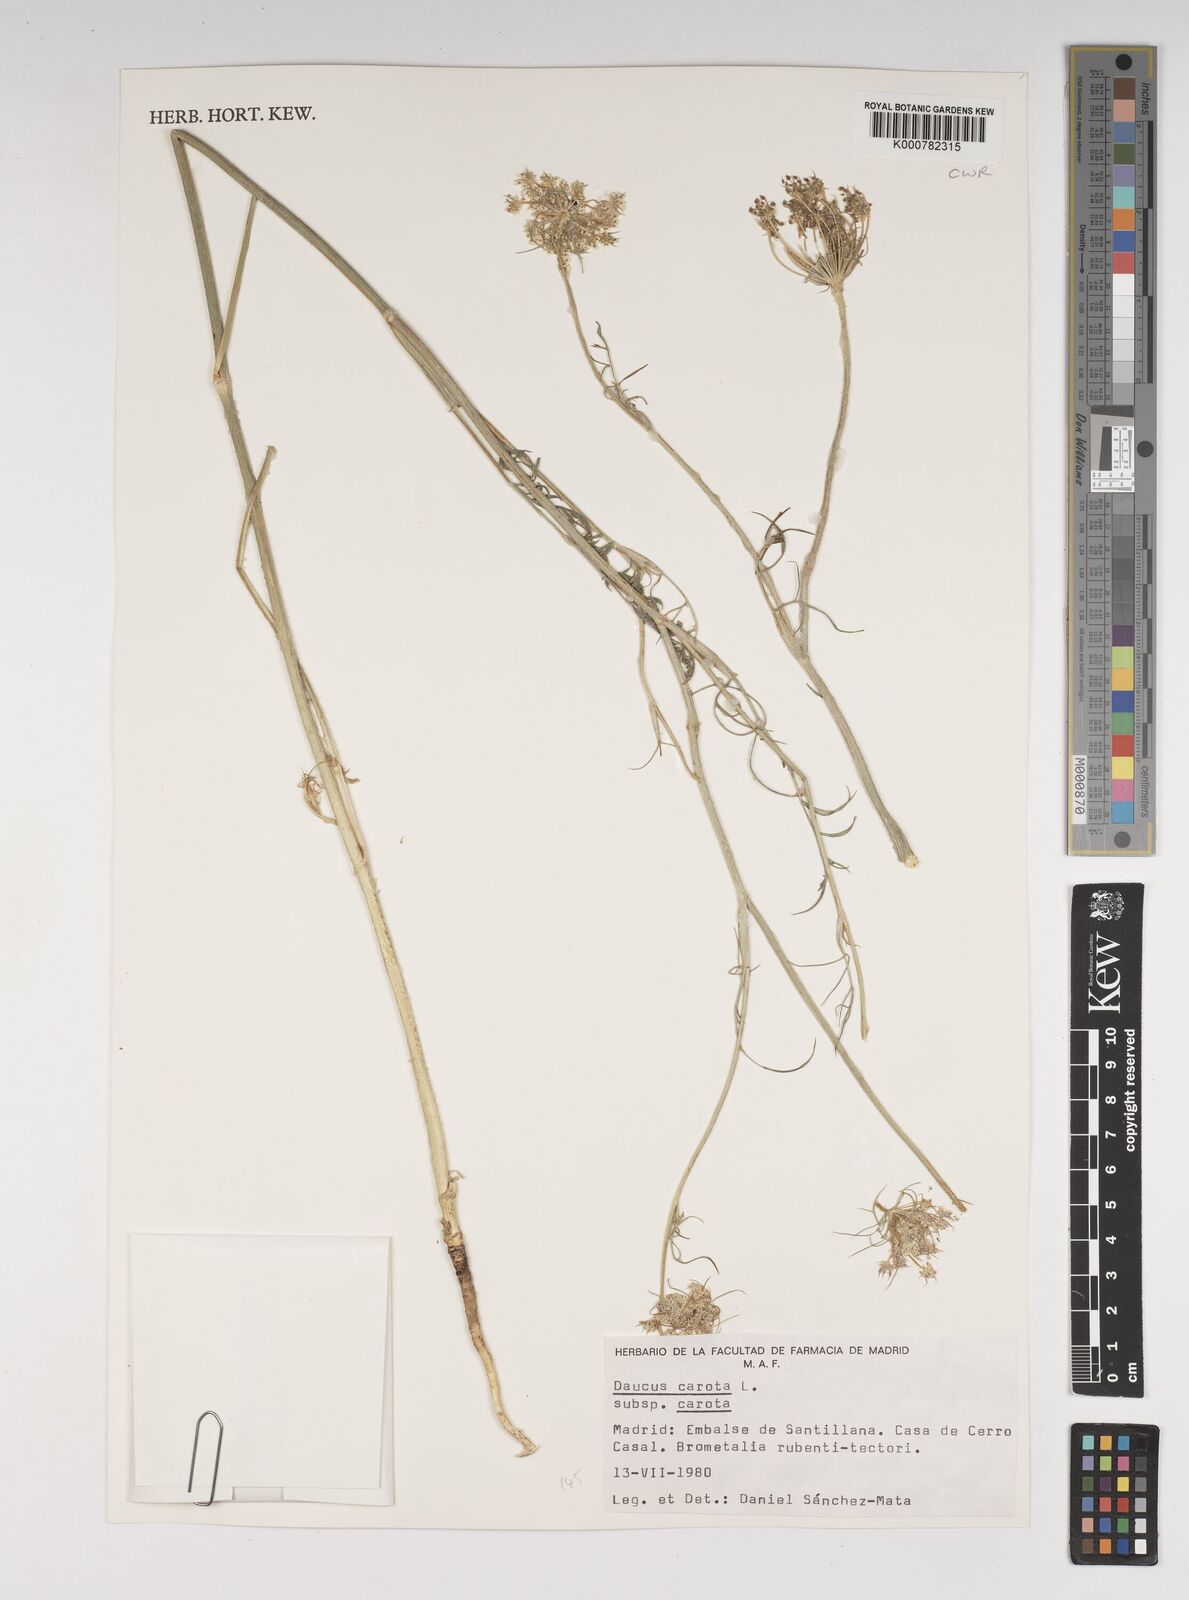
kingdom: Plantae
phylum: Tracheophyta
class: Magnoliopsida
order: Apiales
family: Apiaceae
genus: Daucus
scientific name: Daucus carota
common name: Wild carrot
